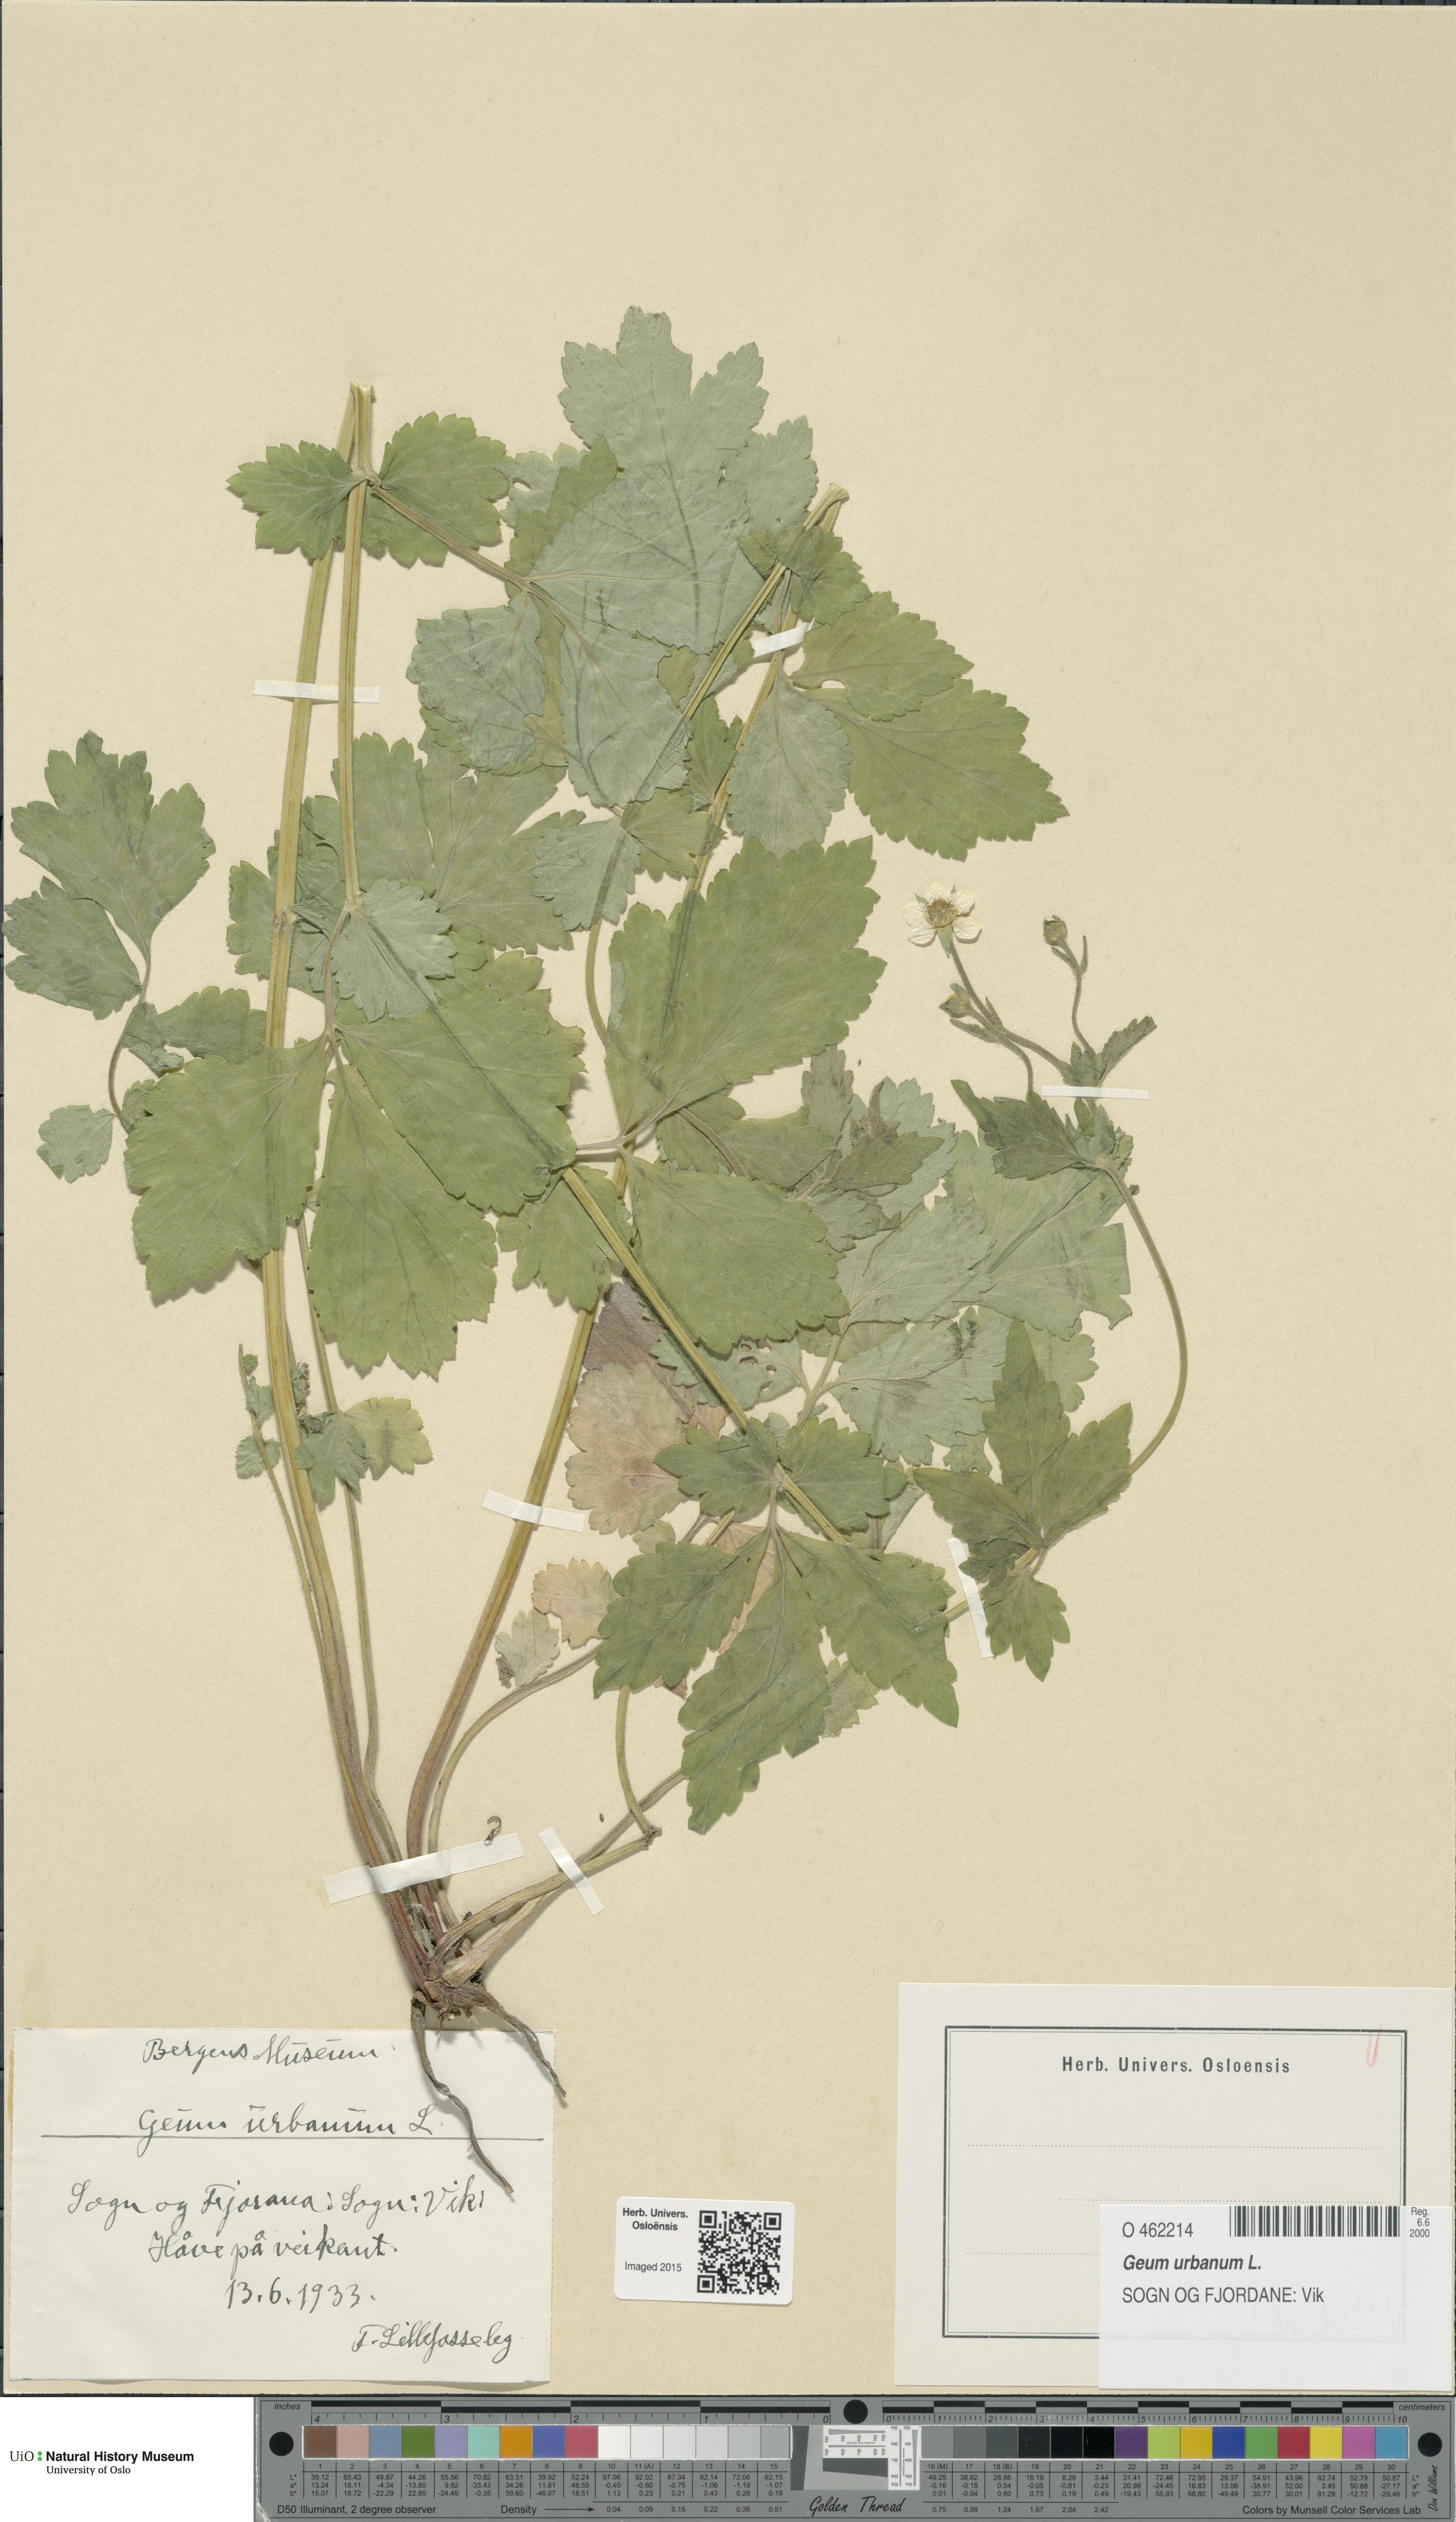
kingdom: Plantae
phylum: Tracheophyta
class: Magnoliopsida
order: Rosales
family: Rosaceae
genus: Geum
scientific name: Geum urbanum
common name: Wood avens
